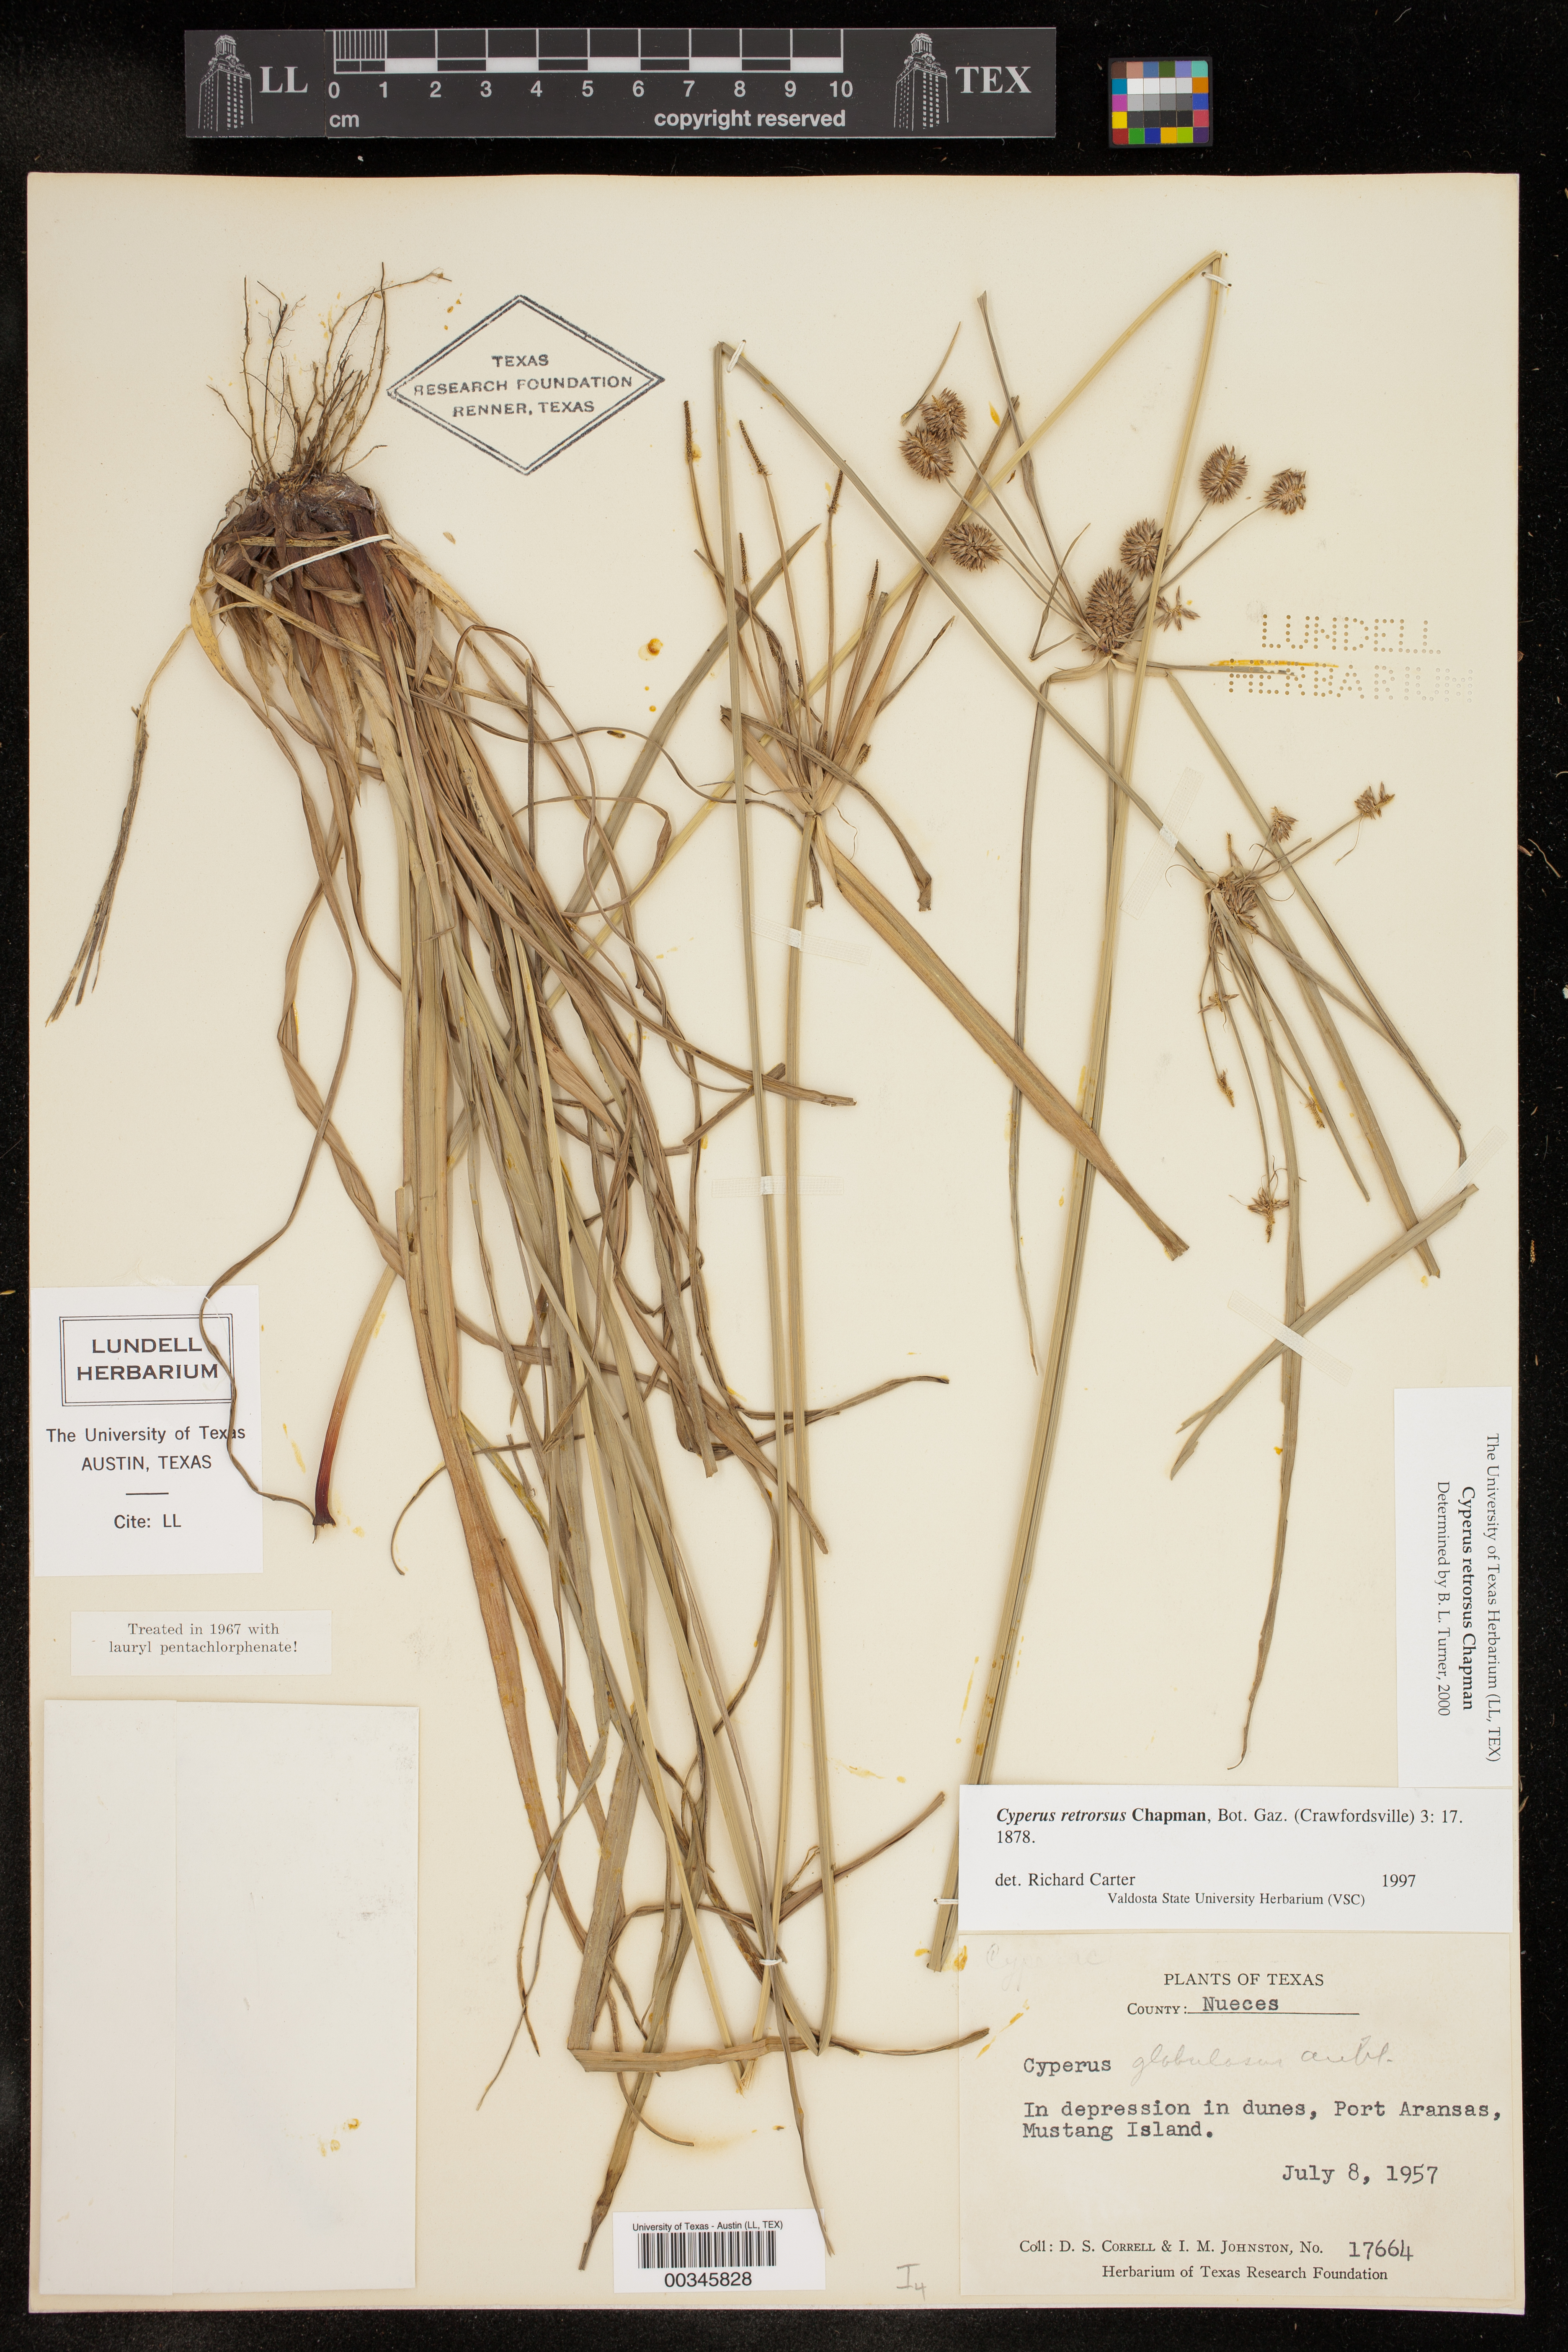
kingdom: Plantae
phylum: Tracheophyta
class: Liliopsida
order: Poales
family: Cyperaceae
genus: Cyperus
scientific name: Cyperus retrorsus
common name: Pinebarren flat sedge
